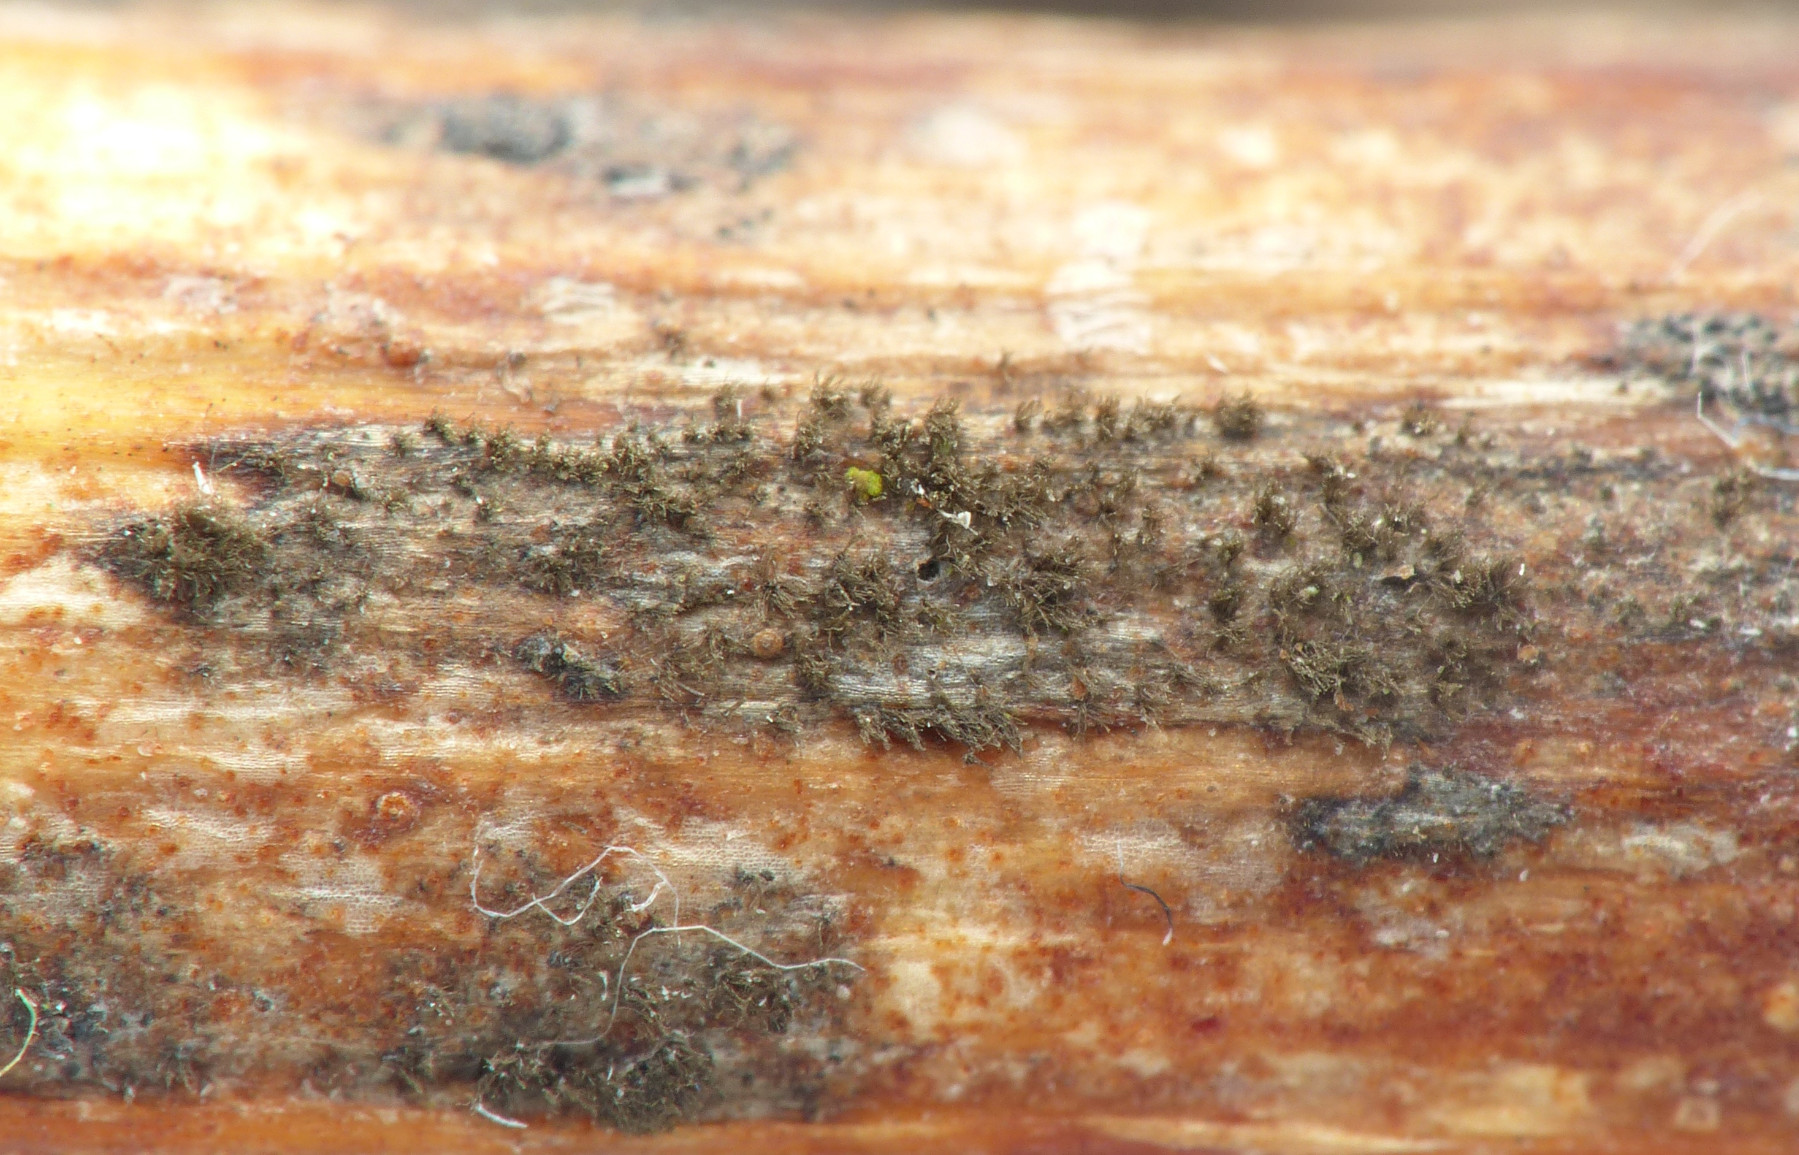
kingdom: Fungi
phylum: Ascomycota
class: Dothideomycetes
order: Pleosporales
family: Pleosporaceae
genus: Alternaria
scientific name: Alternaria
